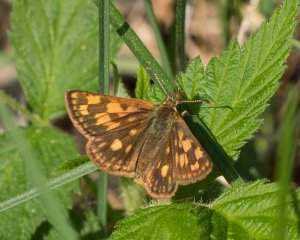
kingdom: Animalia
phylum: Arthropoda
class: Insecta
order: Lepidoptera
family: Hesperiidae
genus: Carterocephalus
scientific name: Carterocephalus palaemon
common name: Chequered Skipper
